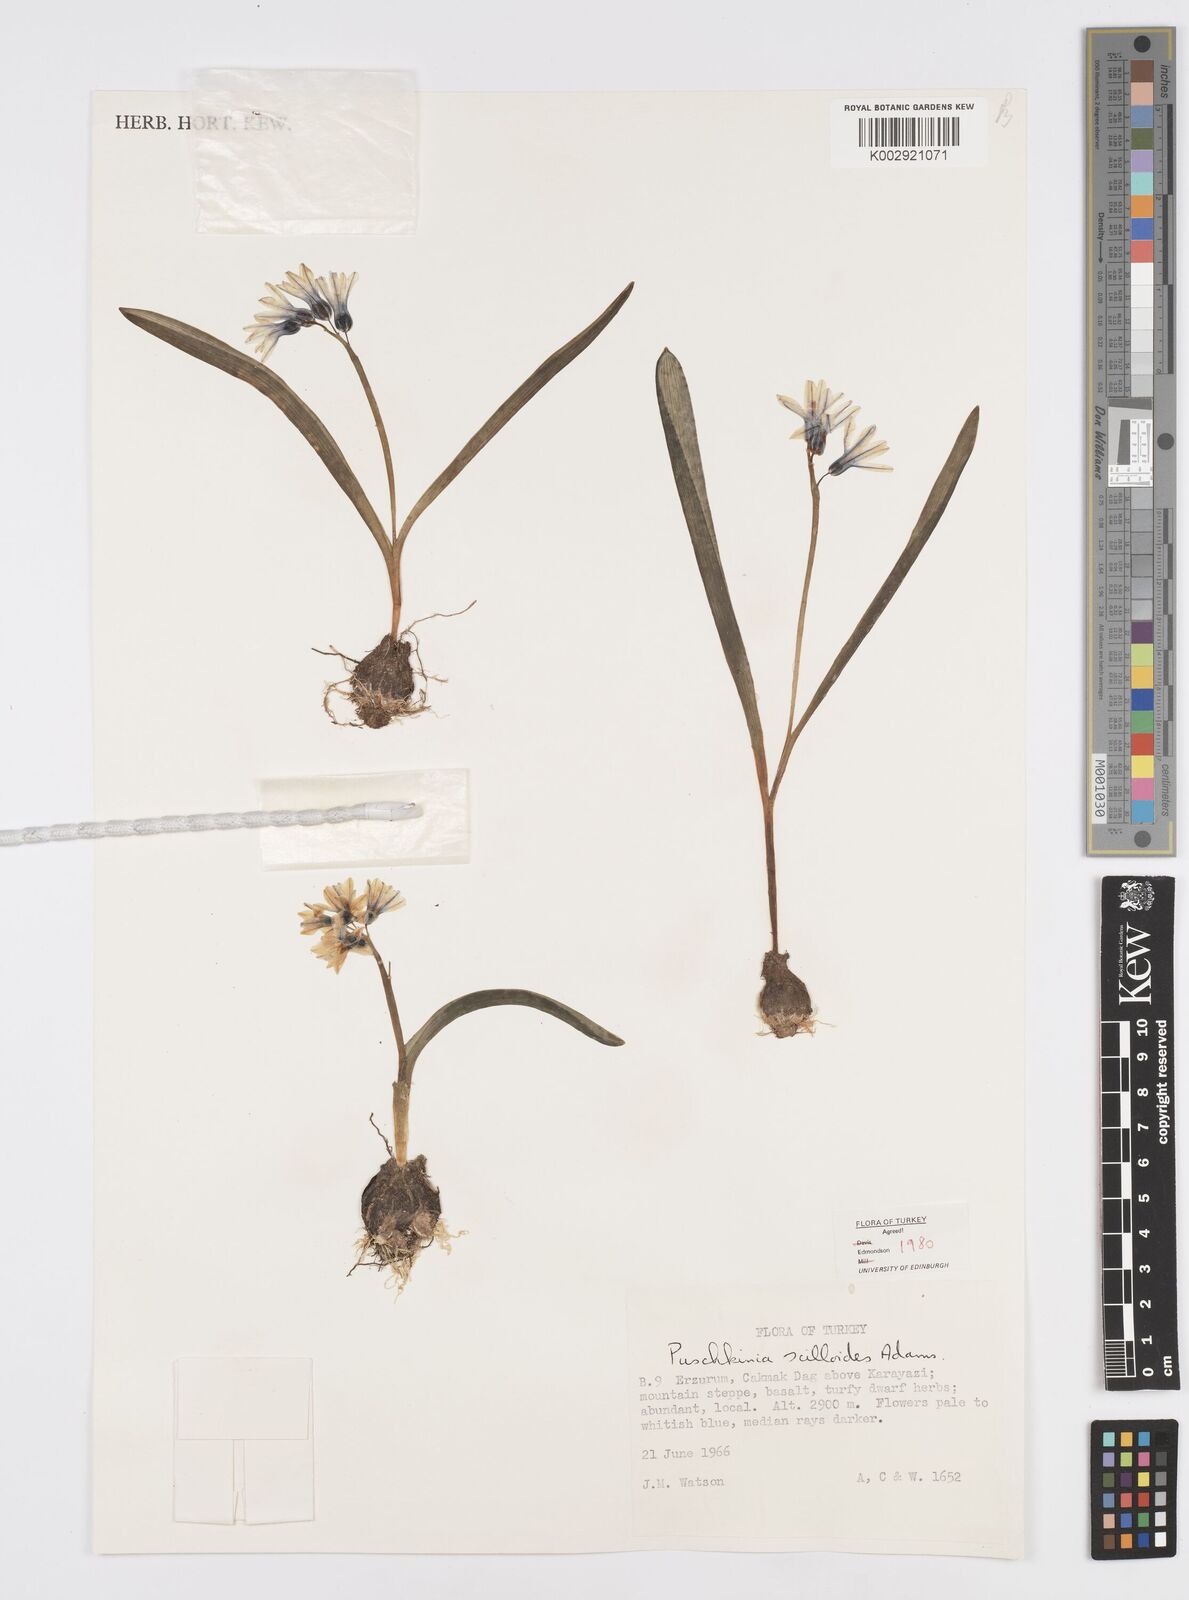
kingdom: Plantae
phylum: Tracheophyta
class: Liliopsida
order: Asparagales
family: Asparagaceae
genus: Puschkinia
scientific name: Puschkinia scilloides
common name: Striped squill
